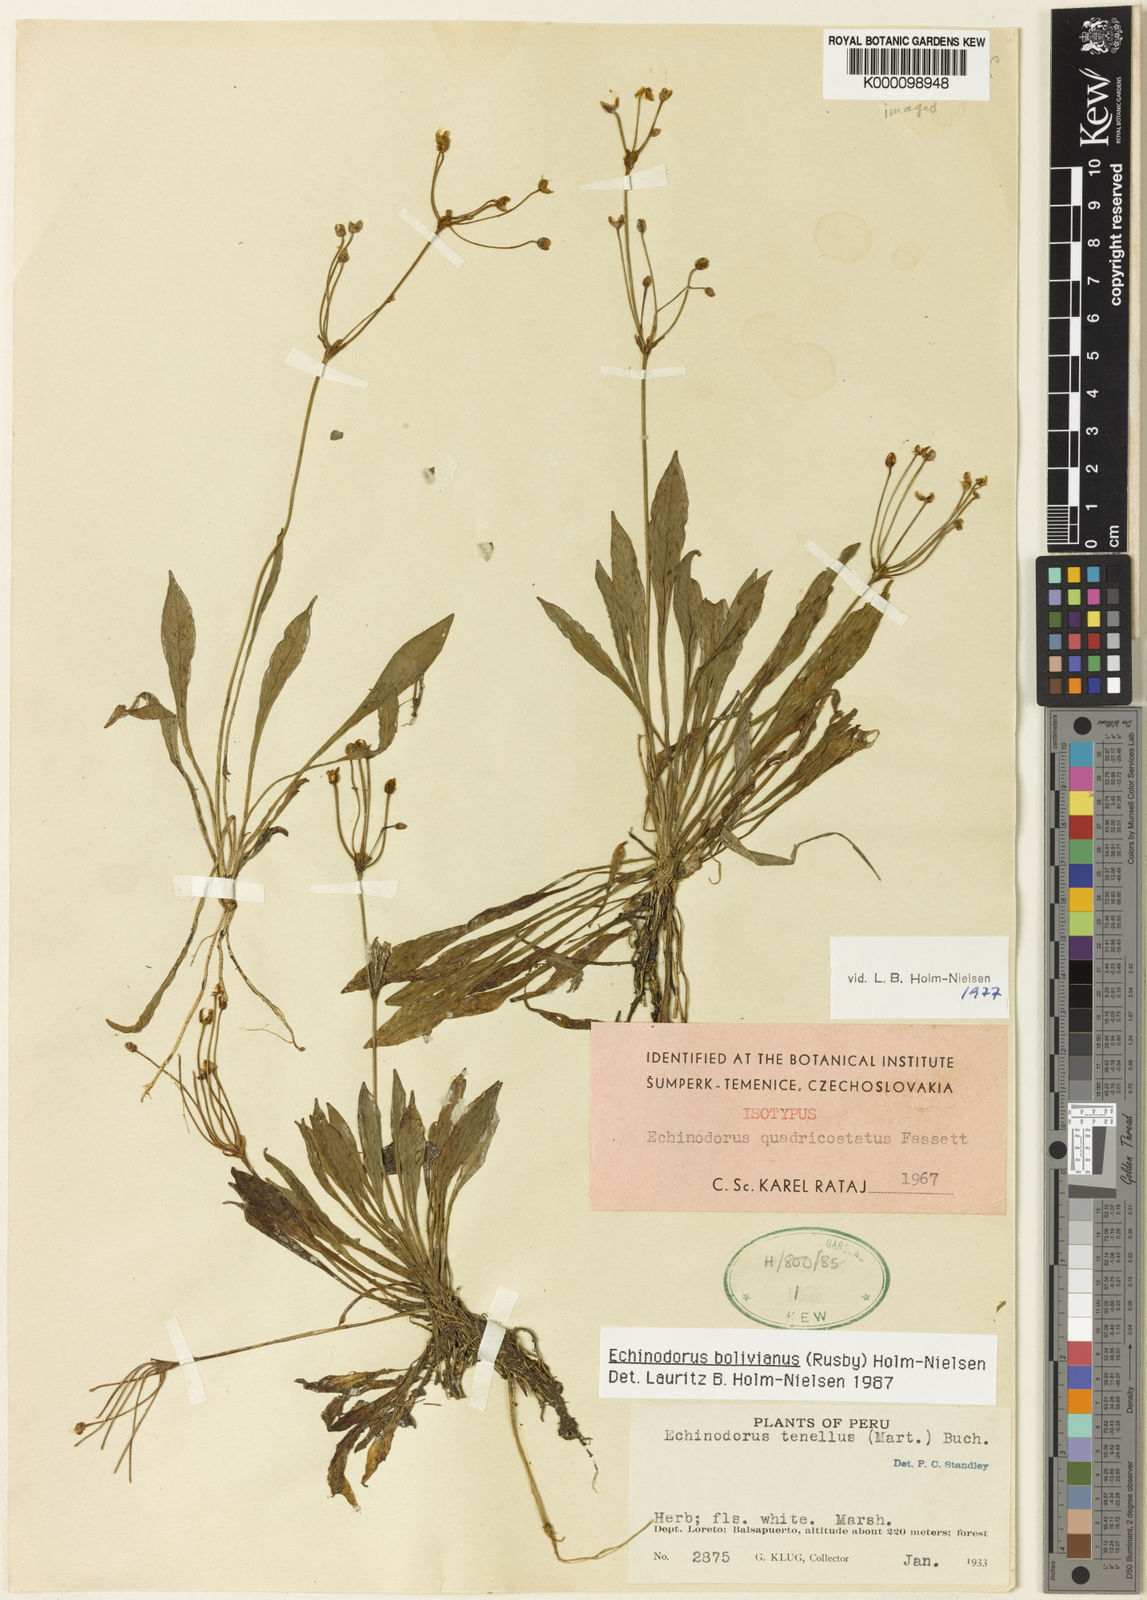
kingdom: Plantae
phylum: Tracheophyta
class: Liliopsida
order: Alismatales
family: Alismataceae
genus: Echinodorus
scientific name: Echinodorus
